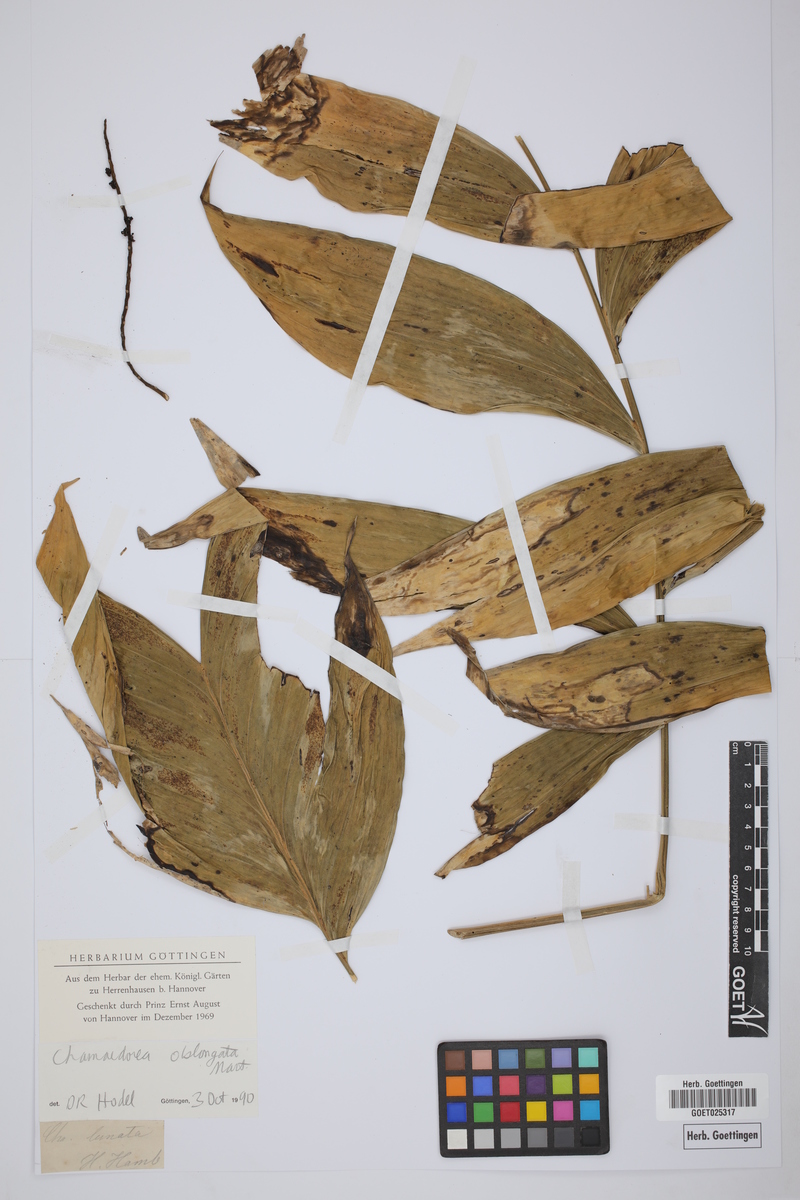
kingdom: Plantae
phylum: Tracheophyta
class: Liliopsida
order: Arecales
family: Arecaceae
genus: Chamaedorea
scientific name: Chamaedorea oblongata
